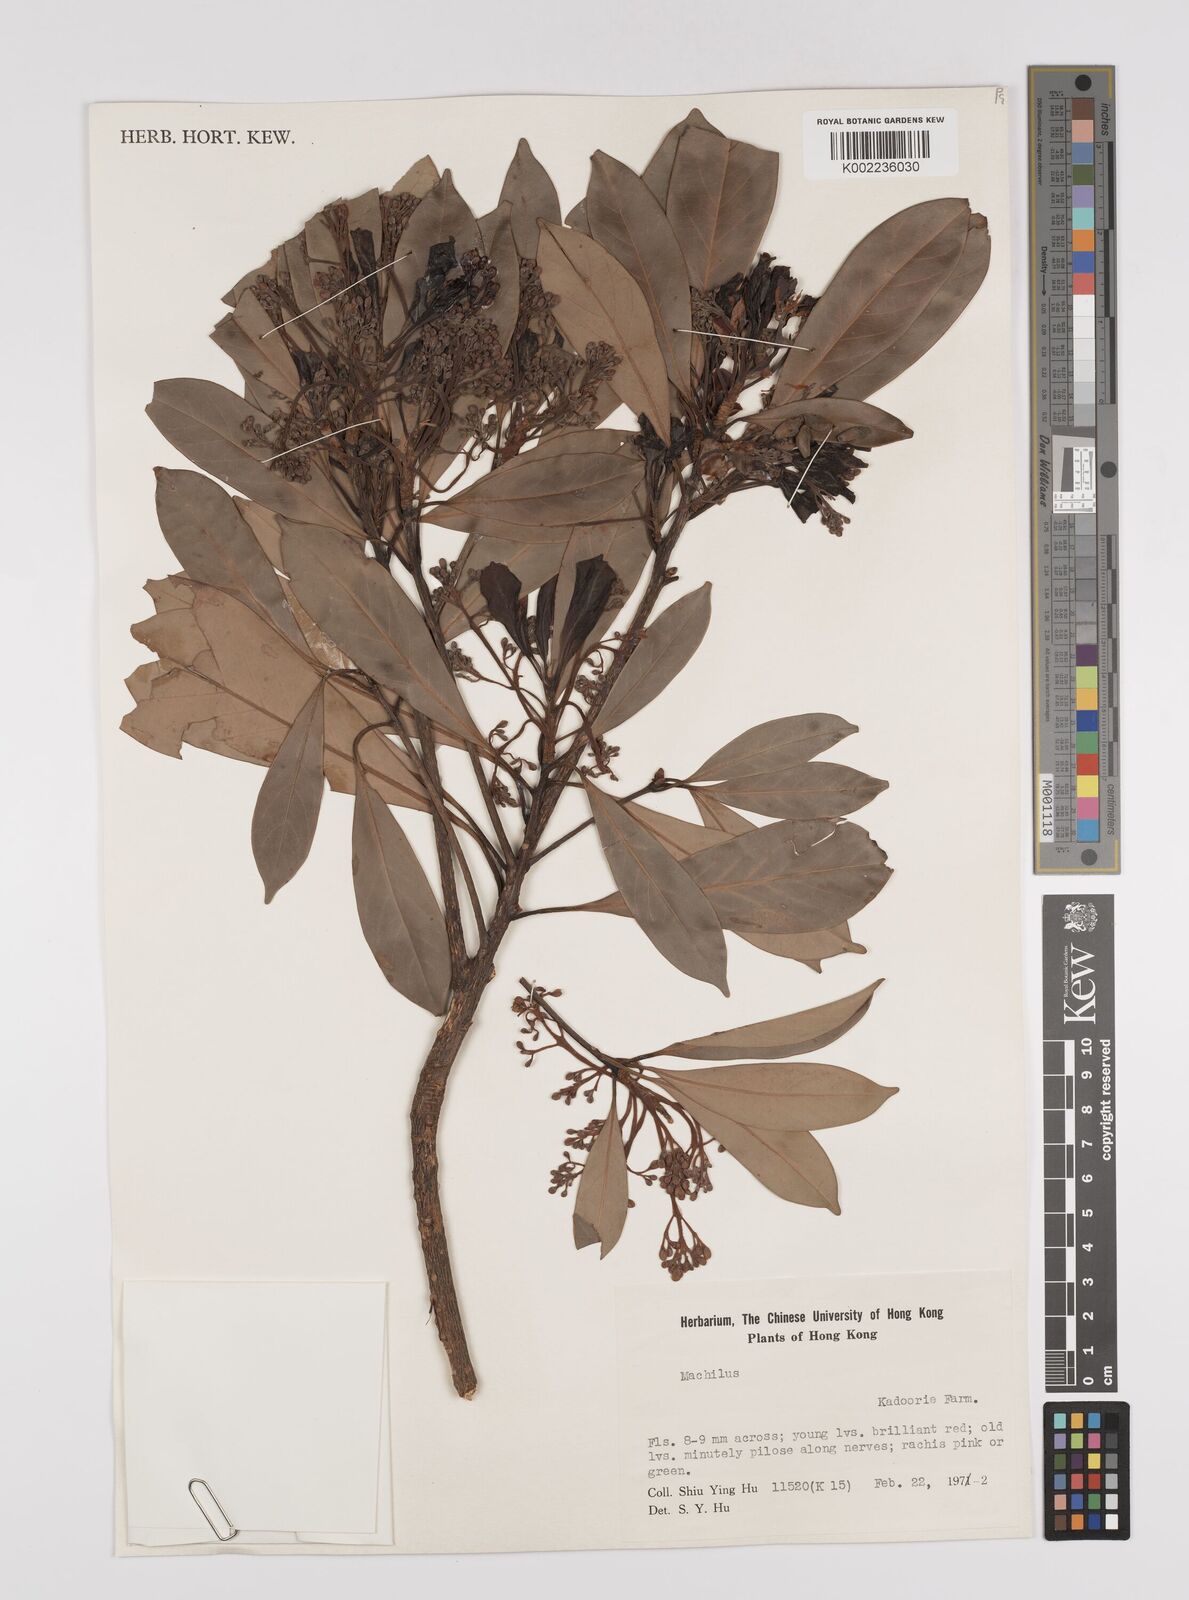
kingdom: Plantae
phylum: Tracheophyta
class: Magnoliopsida
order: Laurales
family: Lauraceae
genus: Persea
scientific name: Persea
